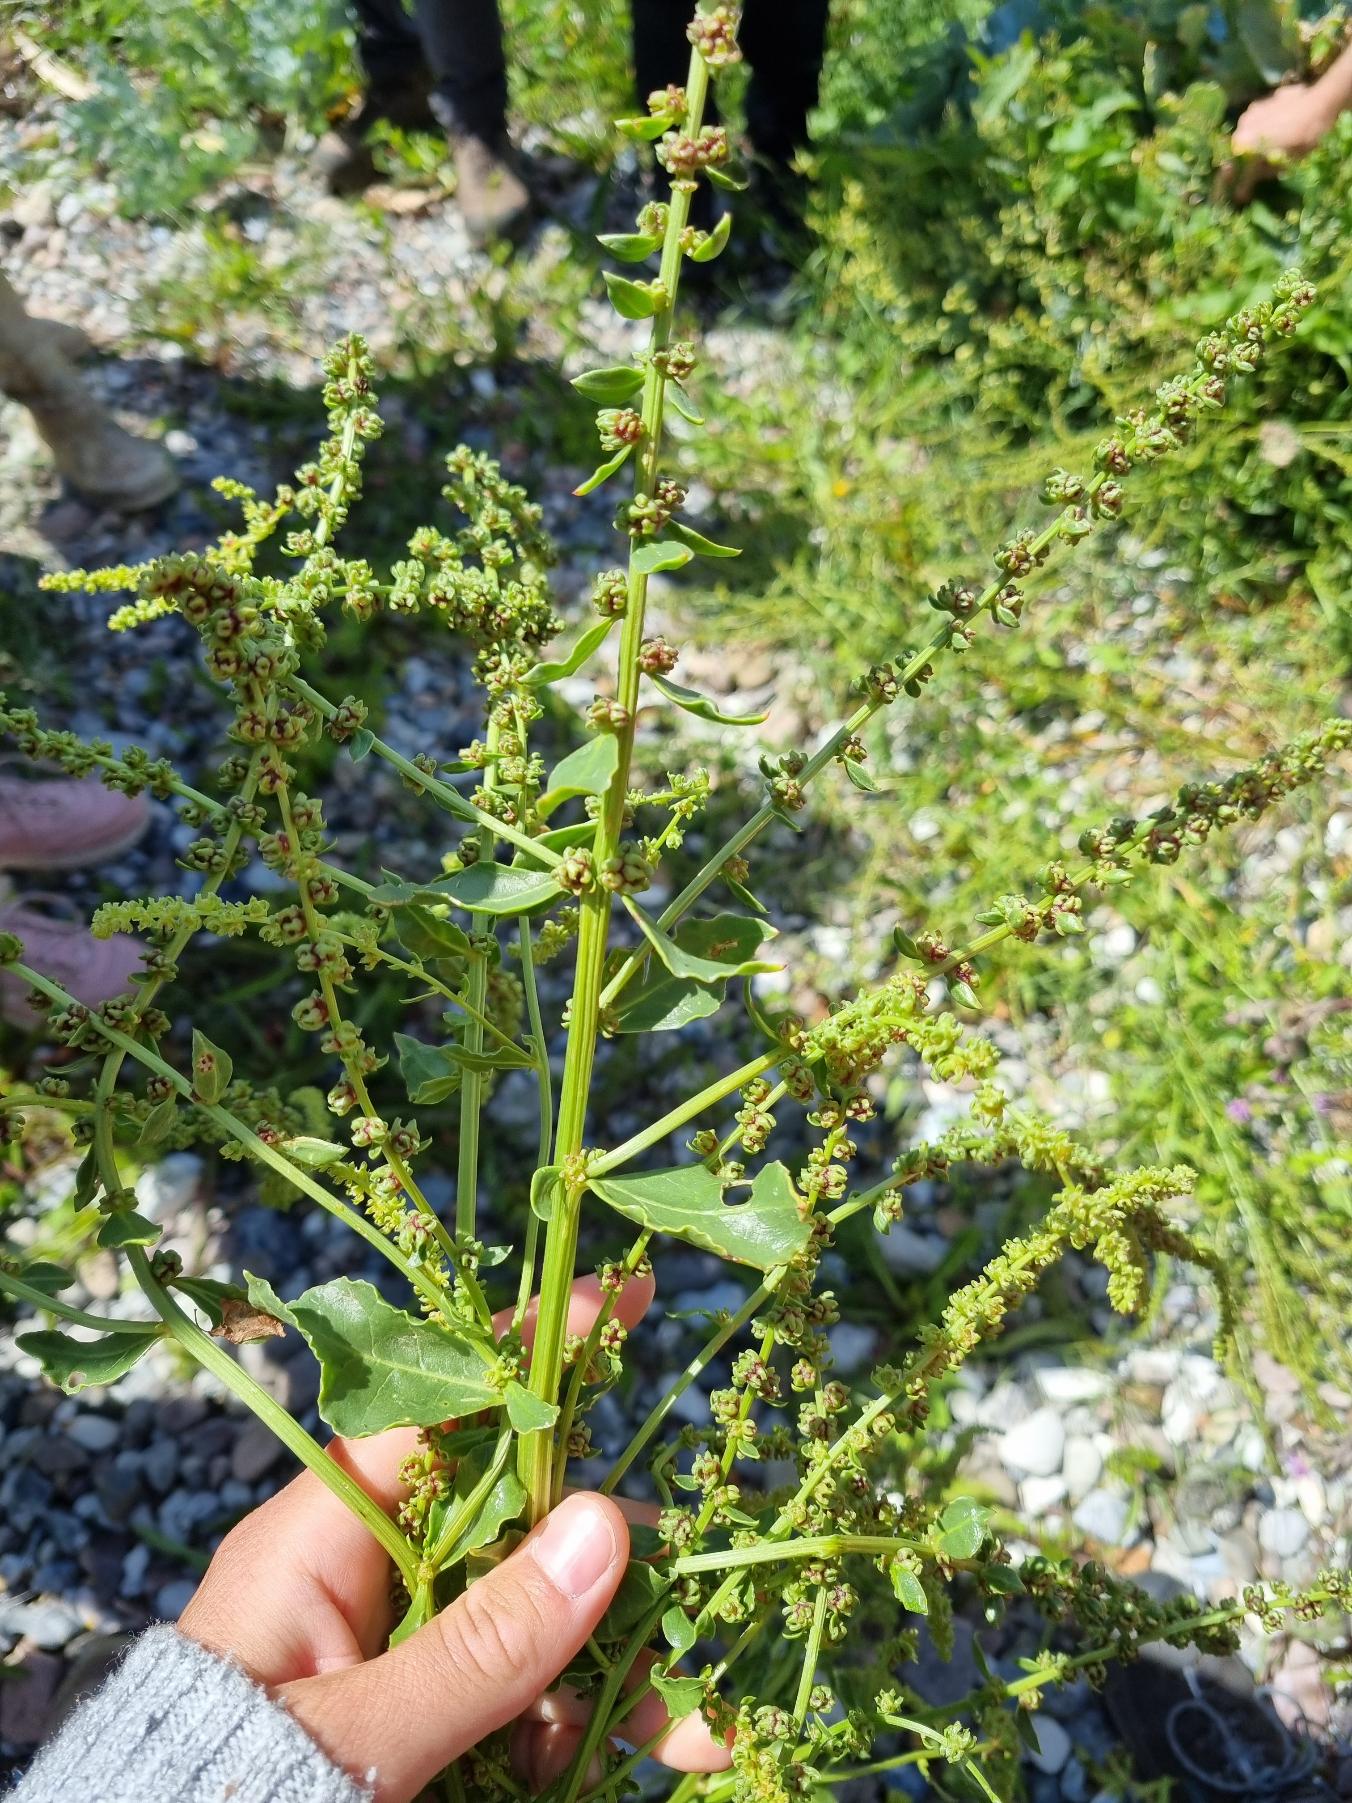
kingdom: Plantae
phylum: Tracheophyta
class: Magnoliopsida
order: Caryophyllales
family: Amaranthaceae
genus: Beta
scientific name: Beta maritima
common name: Strand-bede
